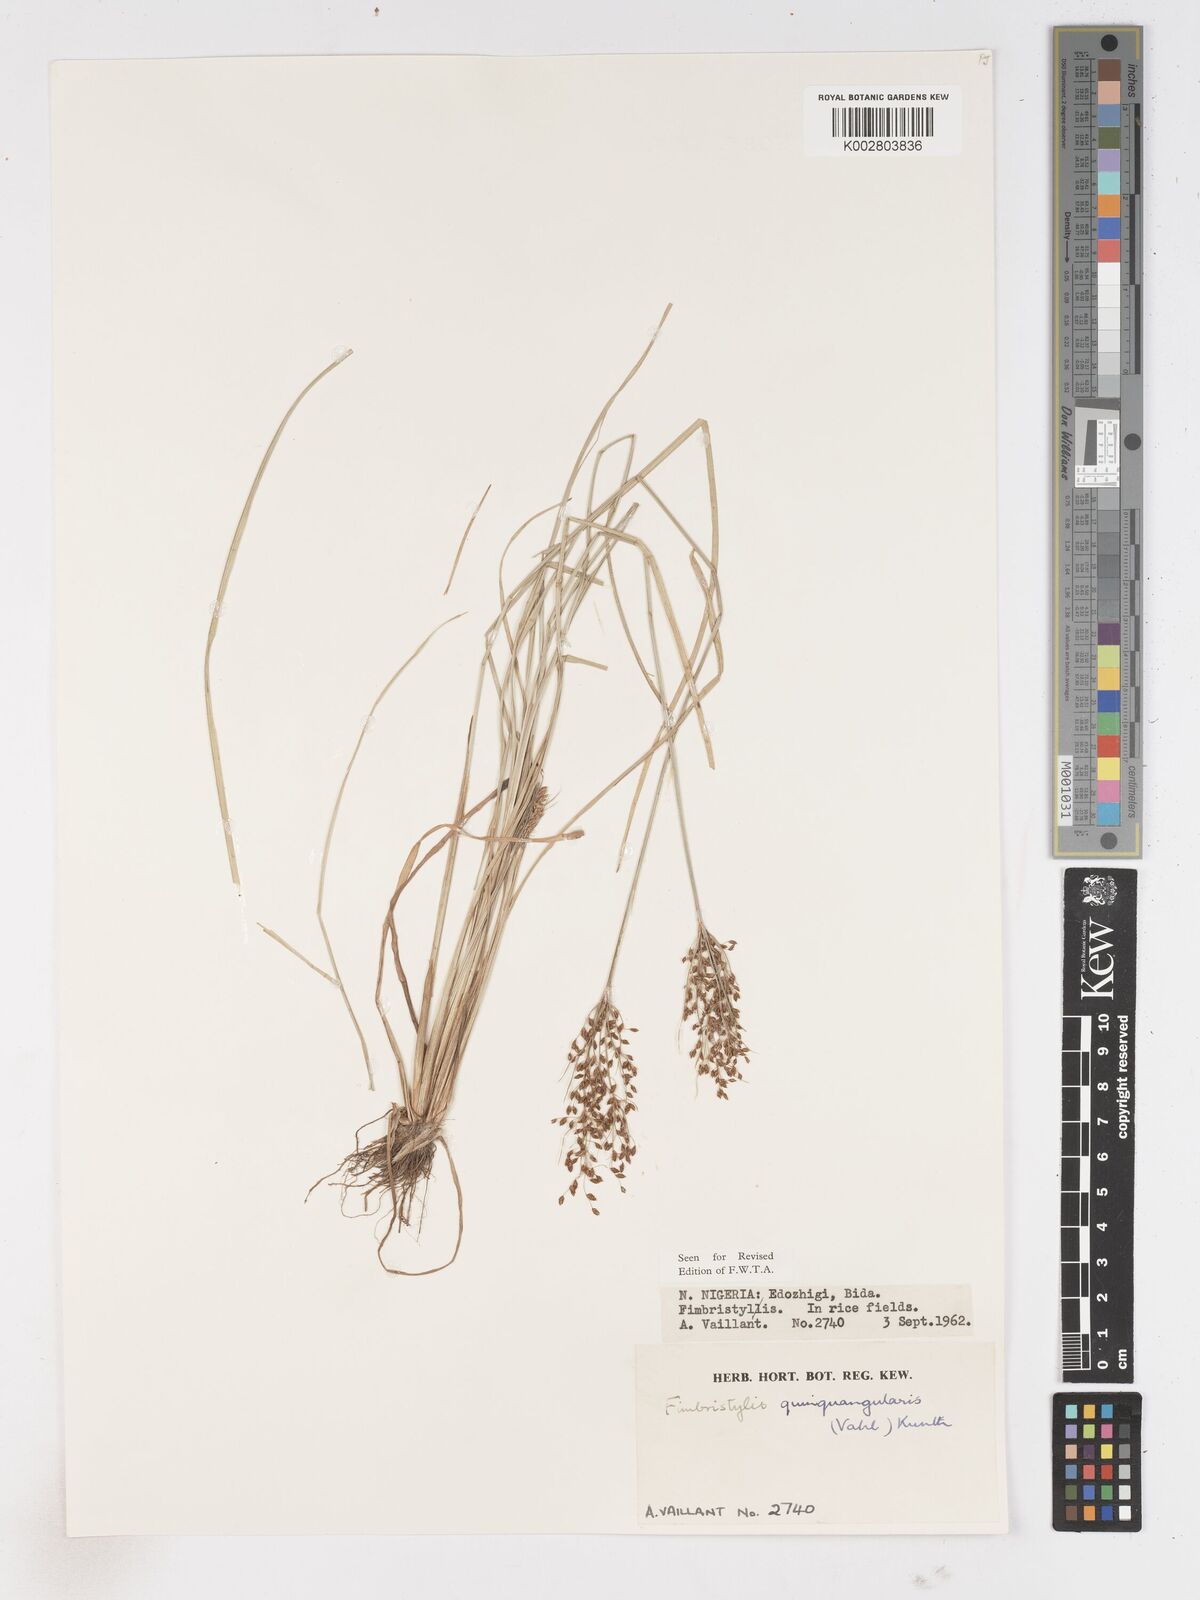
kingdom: Plantae
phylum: Tracheophyta
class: Liliopsida
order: Poales
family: Cyperaceae
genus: Fimbristylis
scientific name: Fimbristylis quinquangularis
